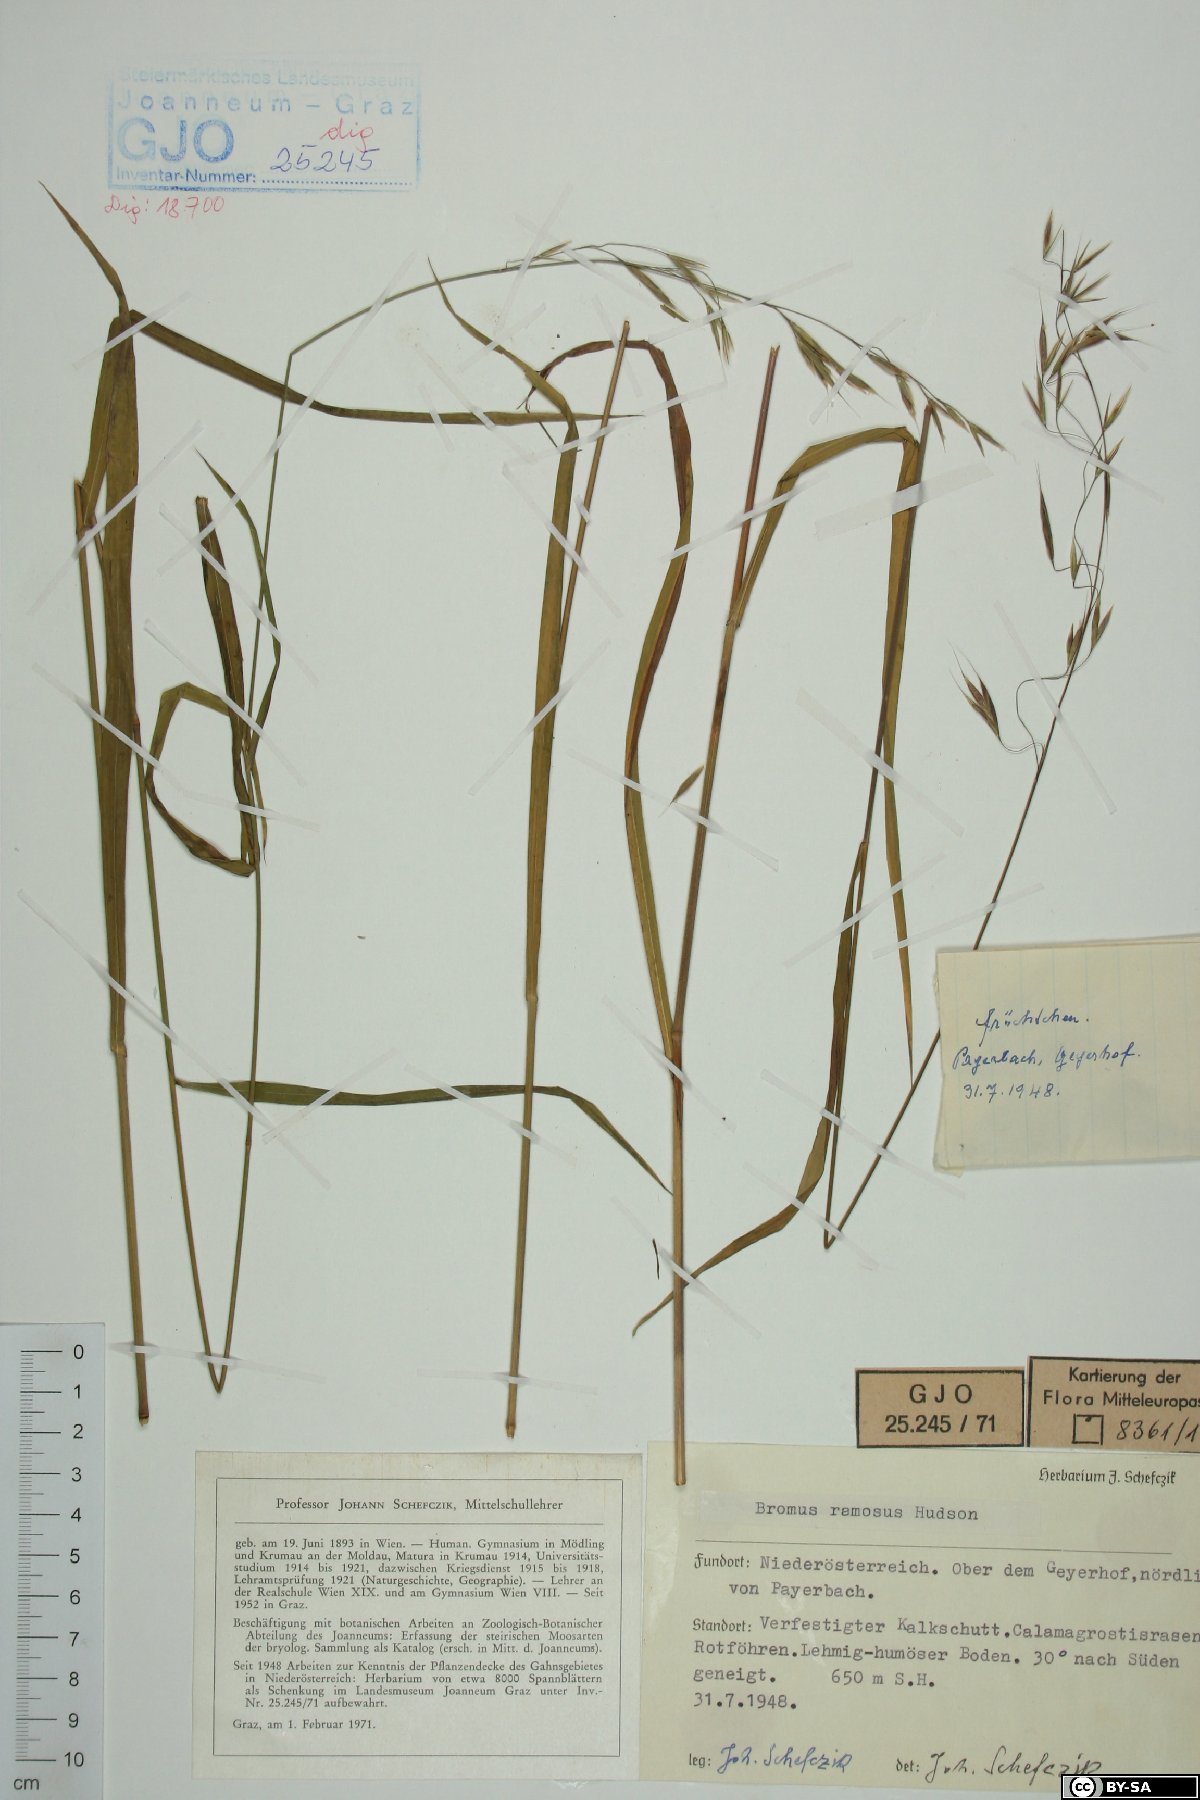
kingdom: Plantae
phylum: Tracheophyta
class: Liliopsida
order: Poales
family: Poaceae
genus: Bromus
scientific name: Bromus ramosus
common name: Hairy brome
